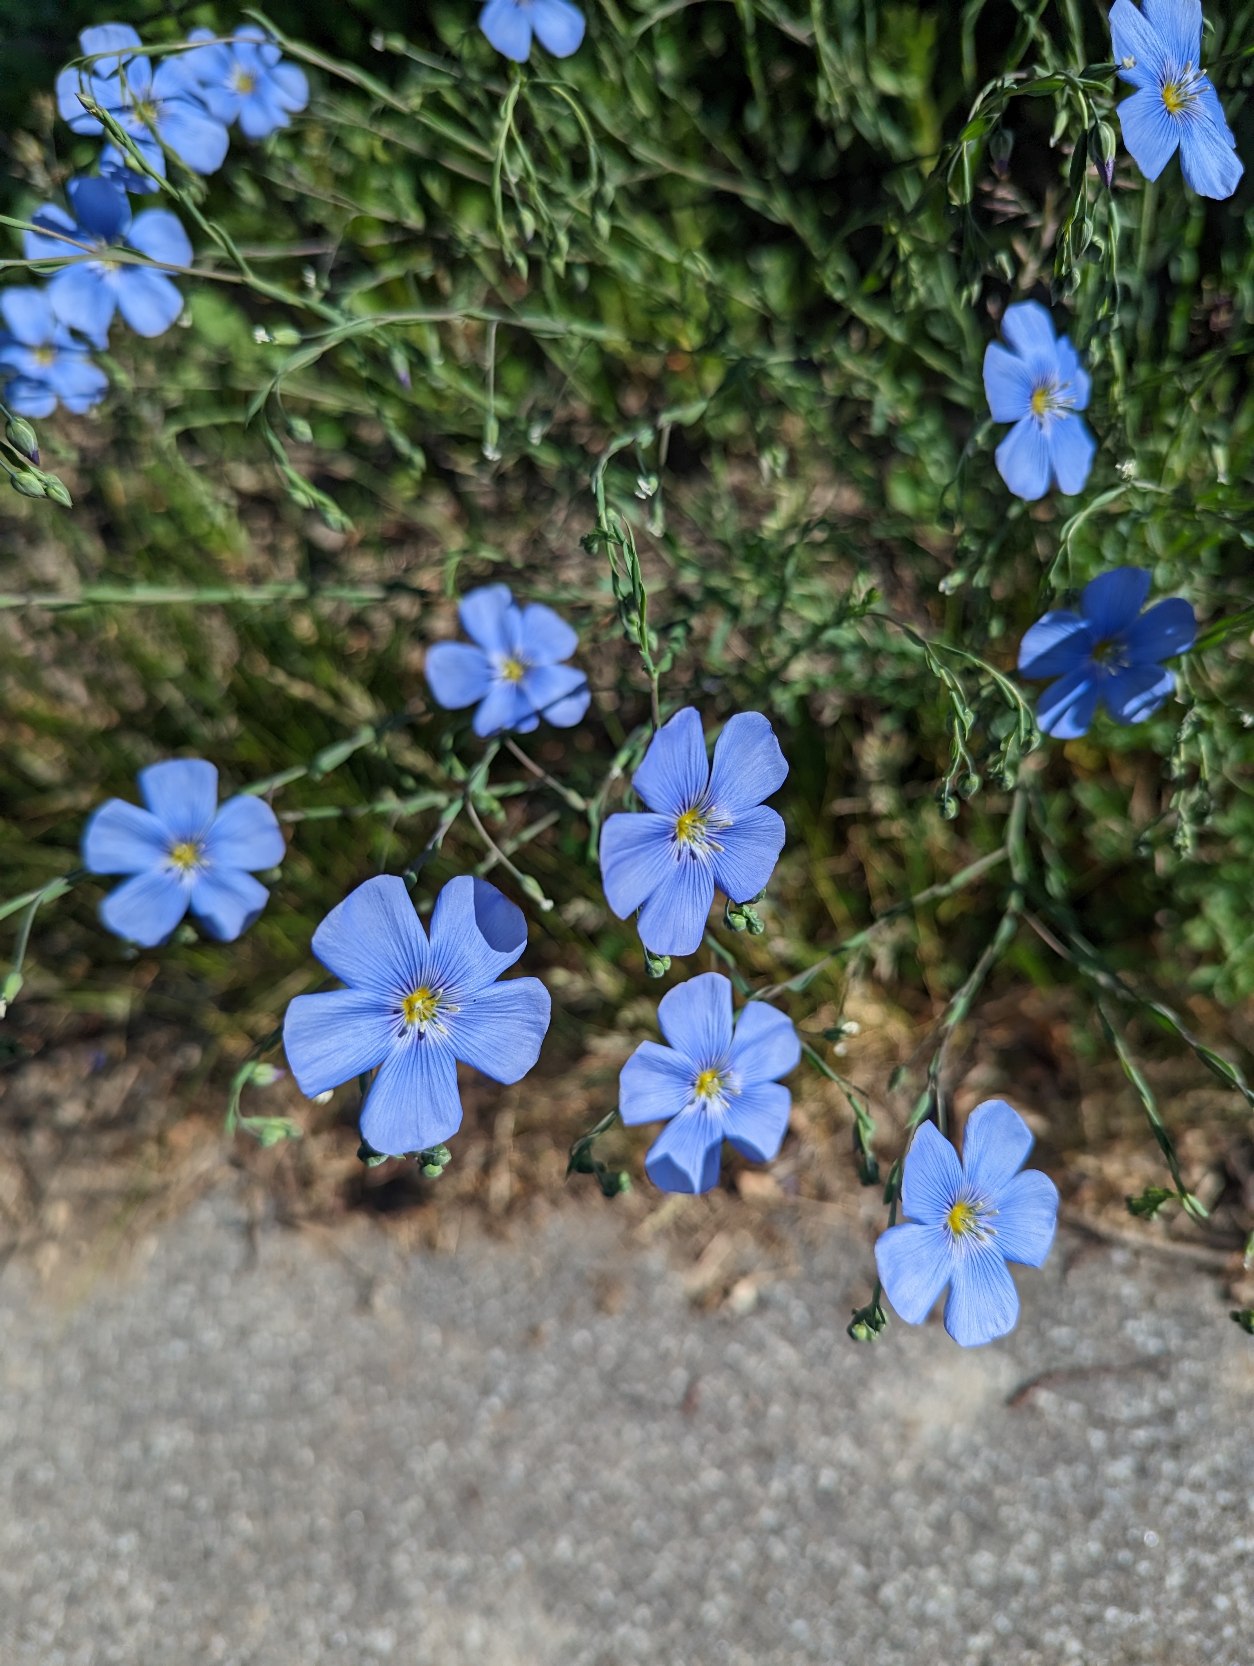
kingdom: Plantae
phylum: Tracheophyta
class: Magnoliopsida
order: Malpighiales
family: Linaceae
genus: Linum
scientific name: Linum austriacum
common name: Østrigsk hør
